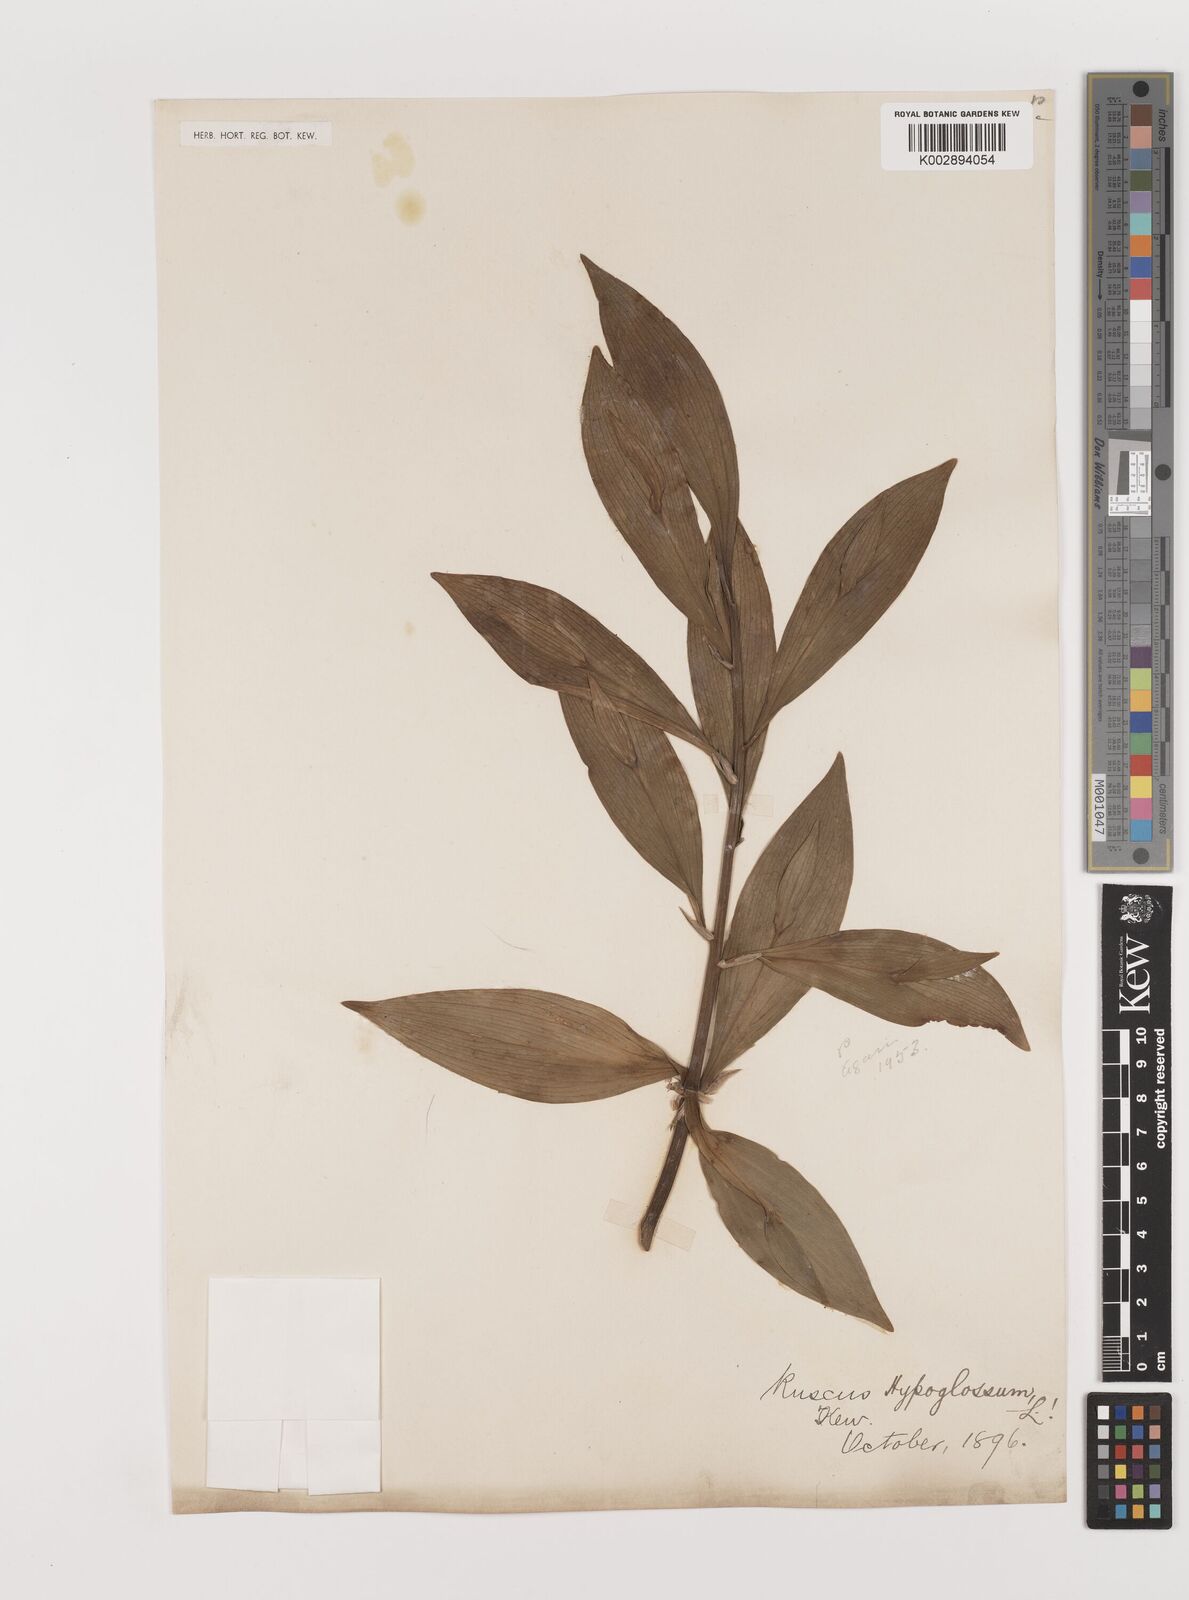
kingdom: Plantae
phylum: Tracheophyta
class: Liliopsida
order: Asparagales
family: Asparagaceae
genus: Ruscus
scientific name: Ruscus hypoglossum
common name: Spineless butcher's-broom
